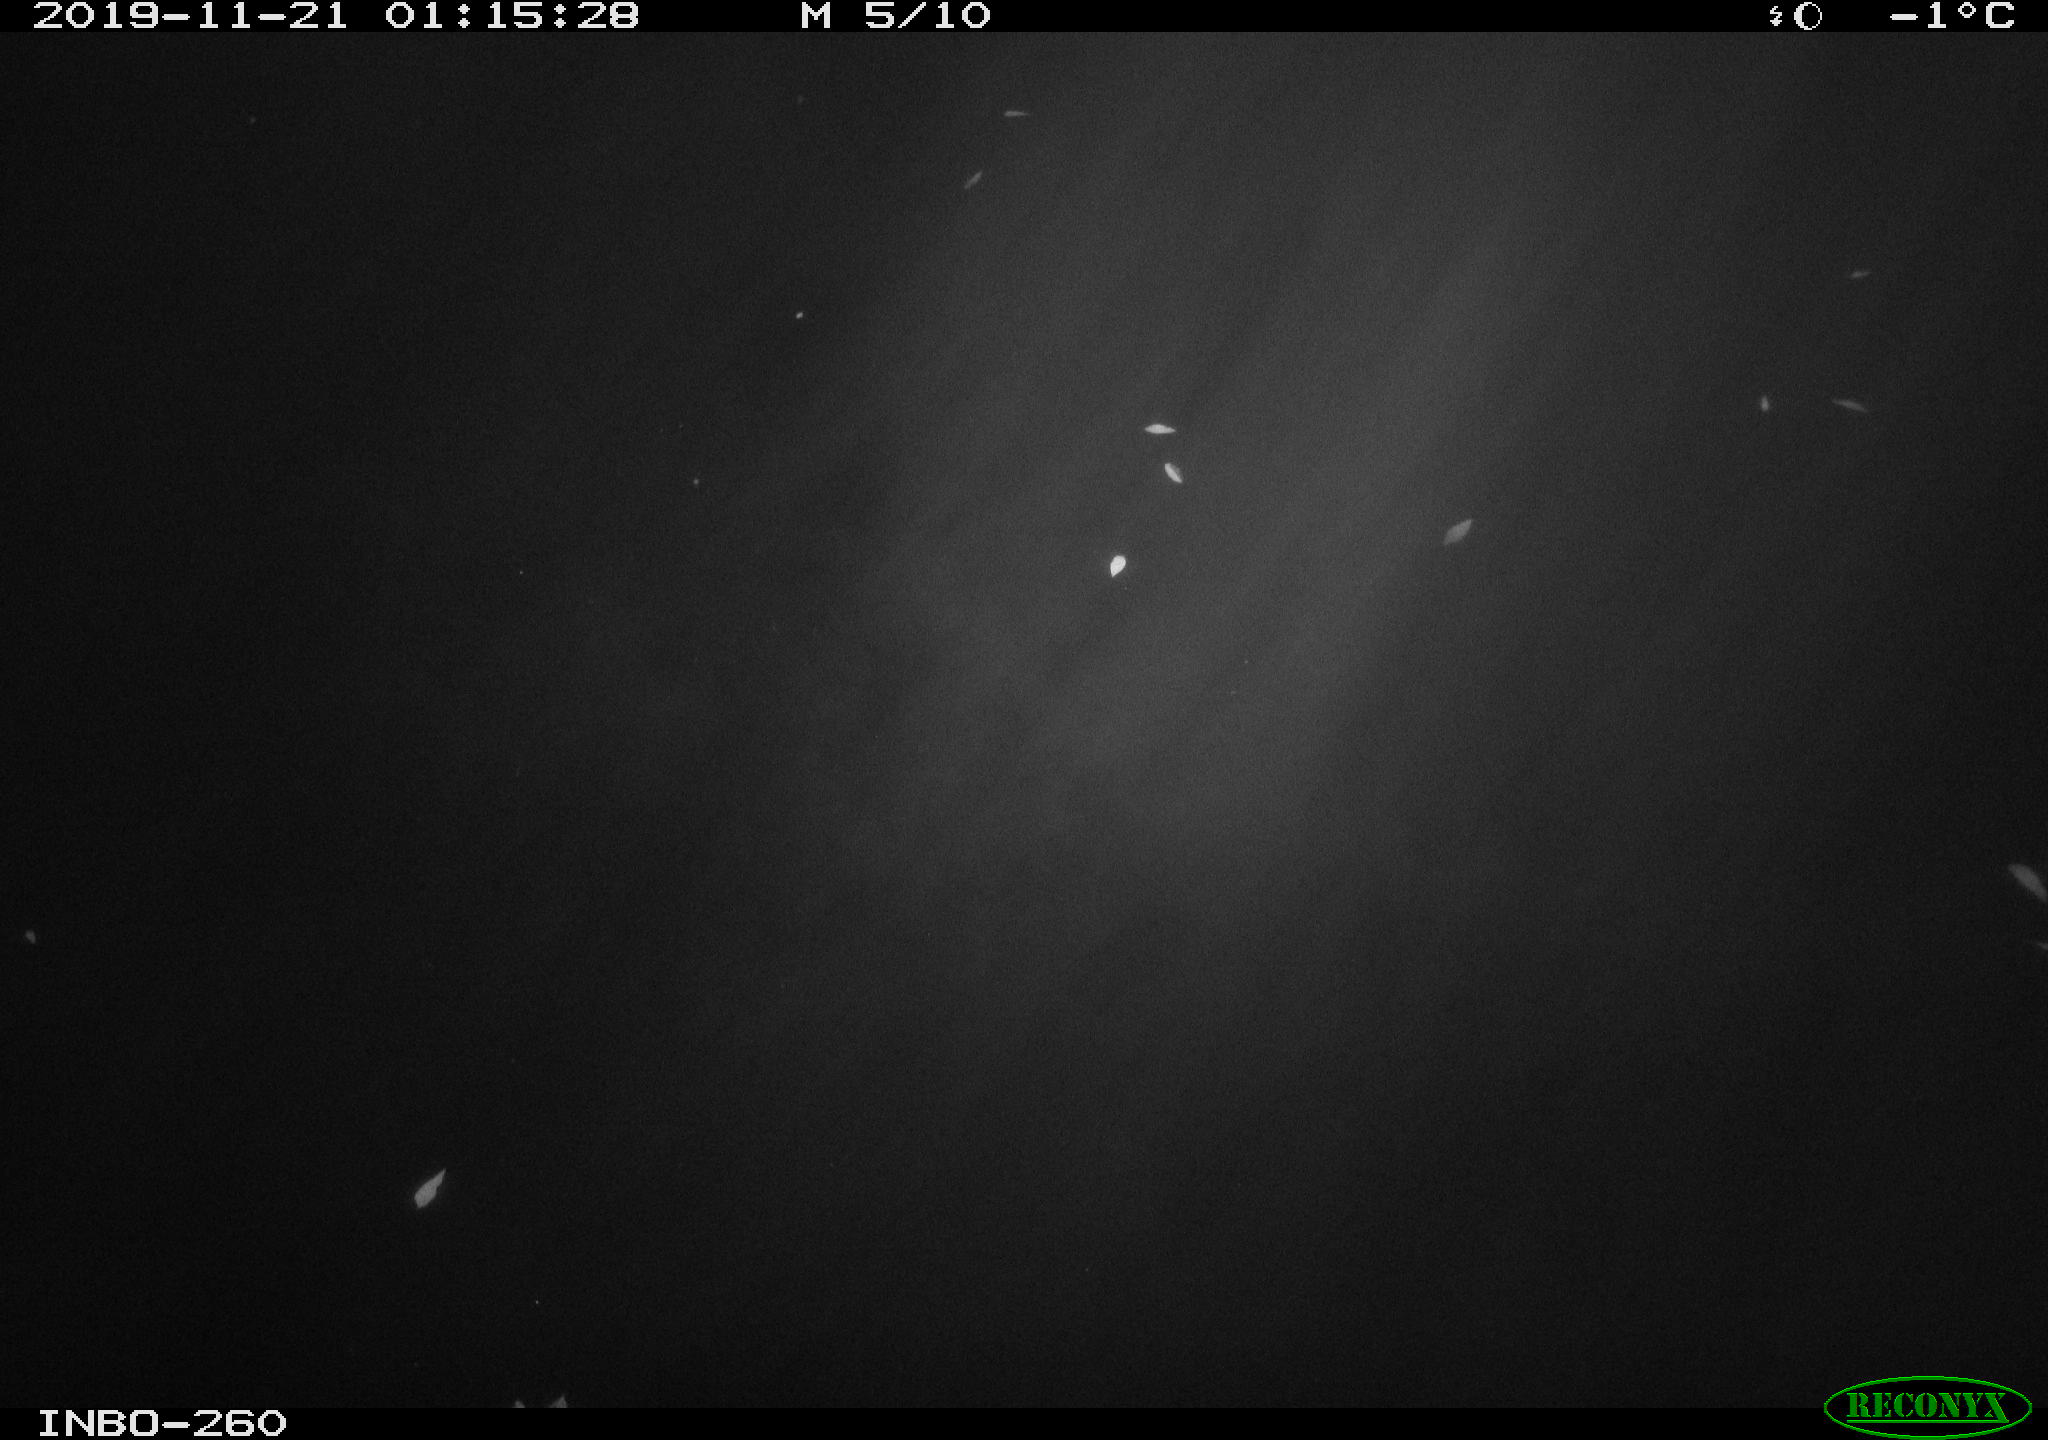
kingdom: Animalia
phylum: Chordata
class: Aves
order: Anseriformes
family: Anatidae
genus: Anas
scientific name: Anas platyrhynchos
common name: Mallard
